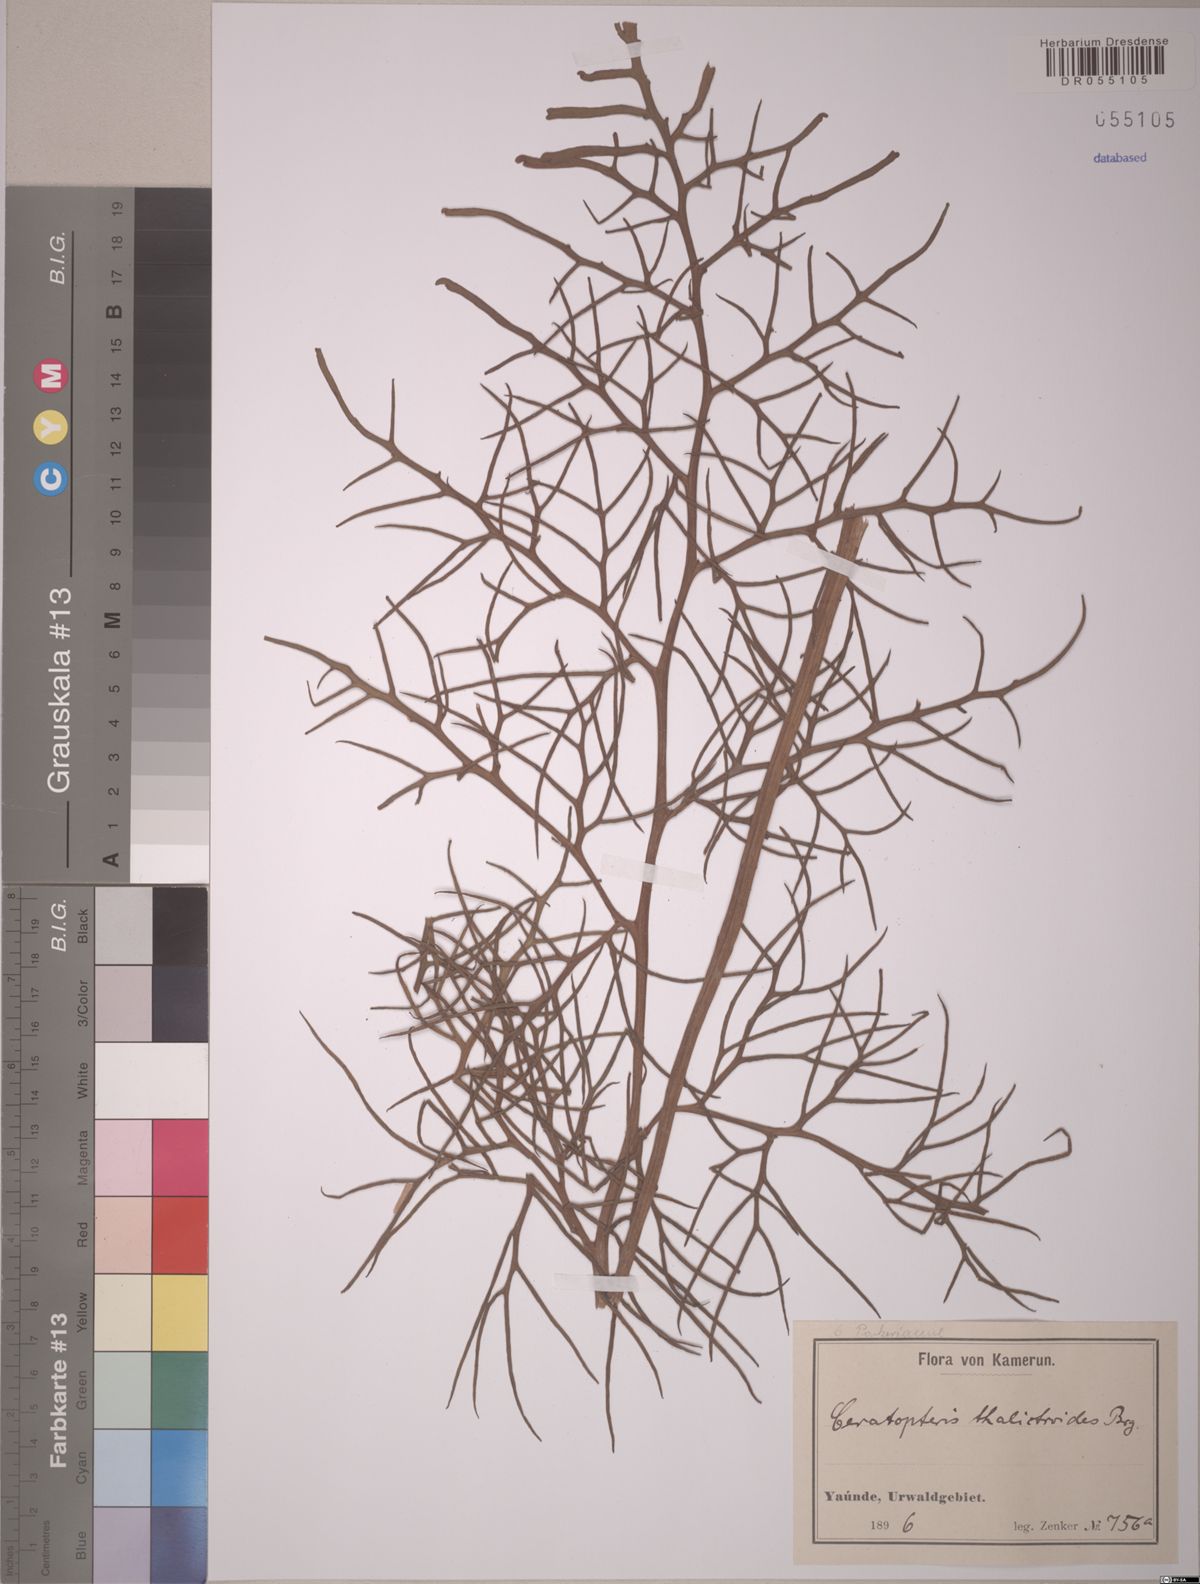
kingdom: Plantae
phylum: Tracheophyta
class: Polypodiopsida
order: Polypodiales
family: Pteridaceae
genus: Ceratopteris
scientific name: Ceratopteris thalictroides
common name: Water fern
